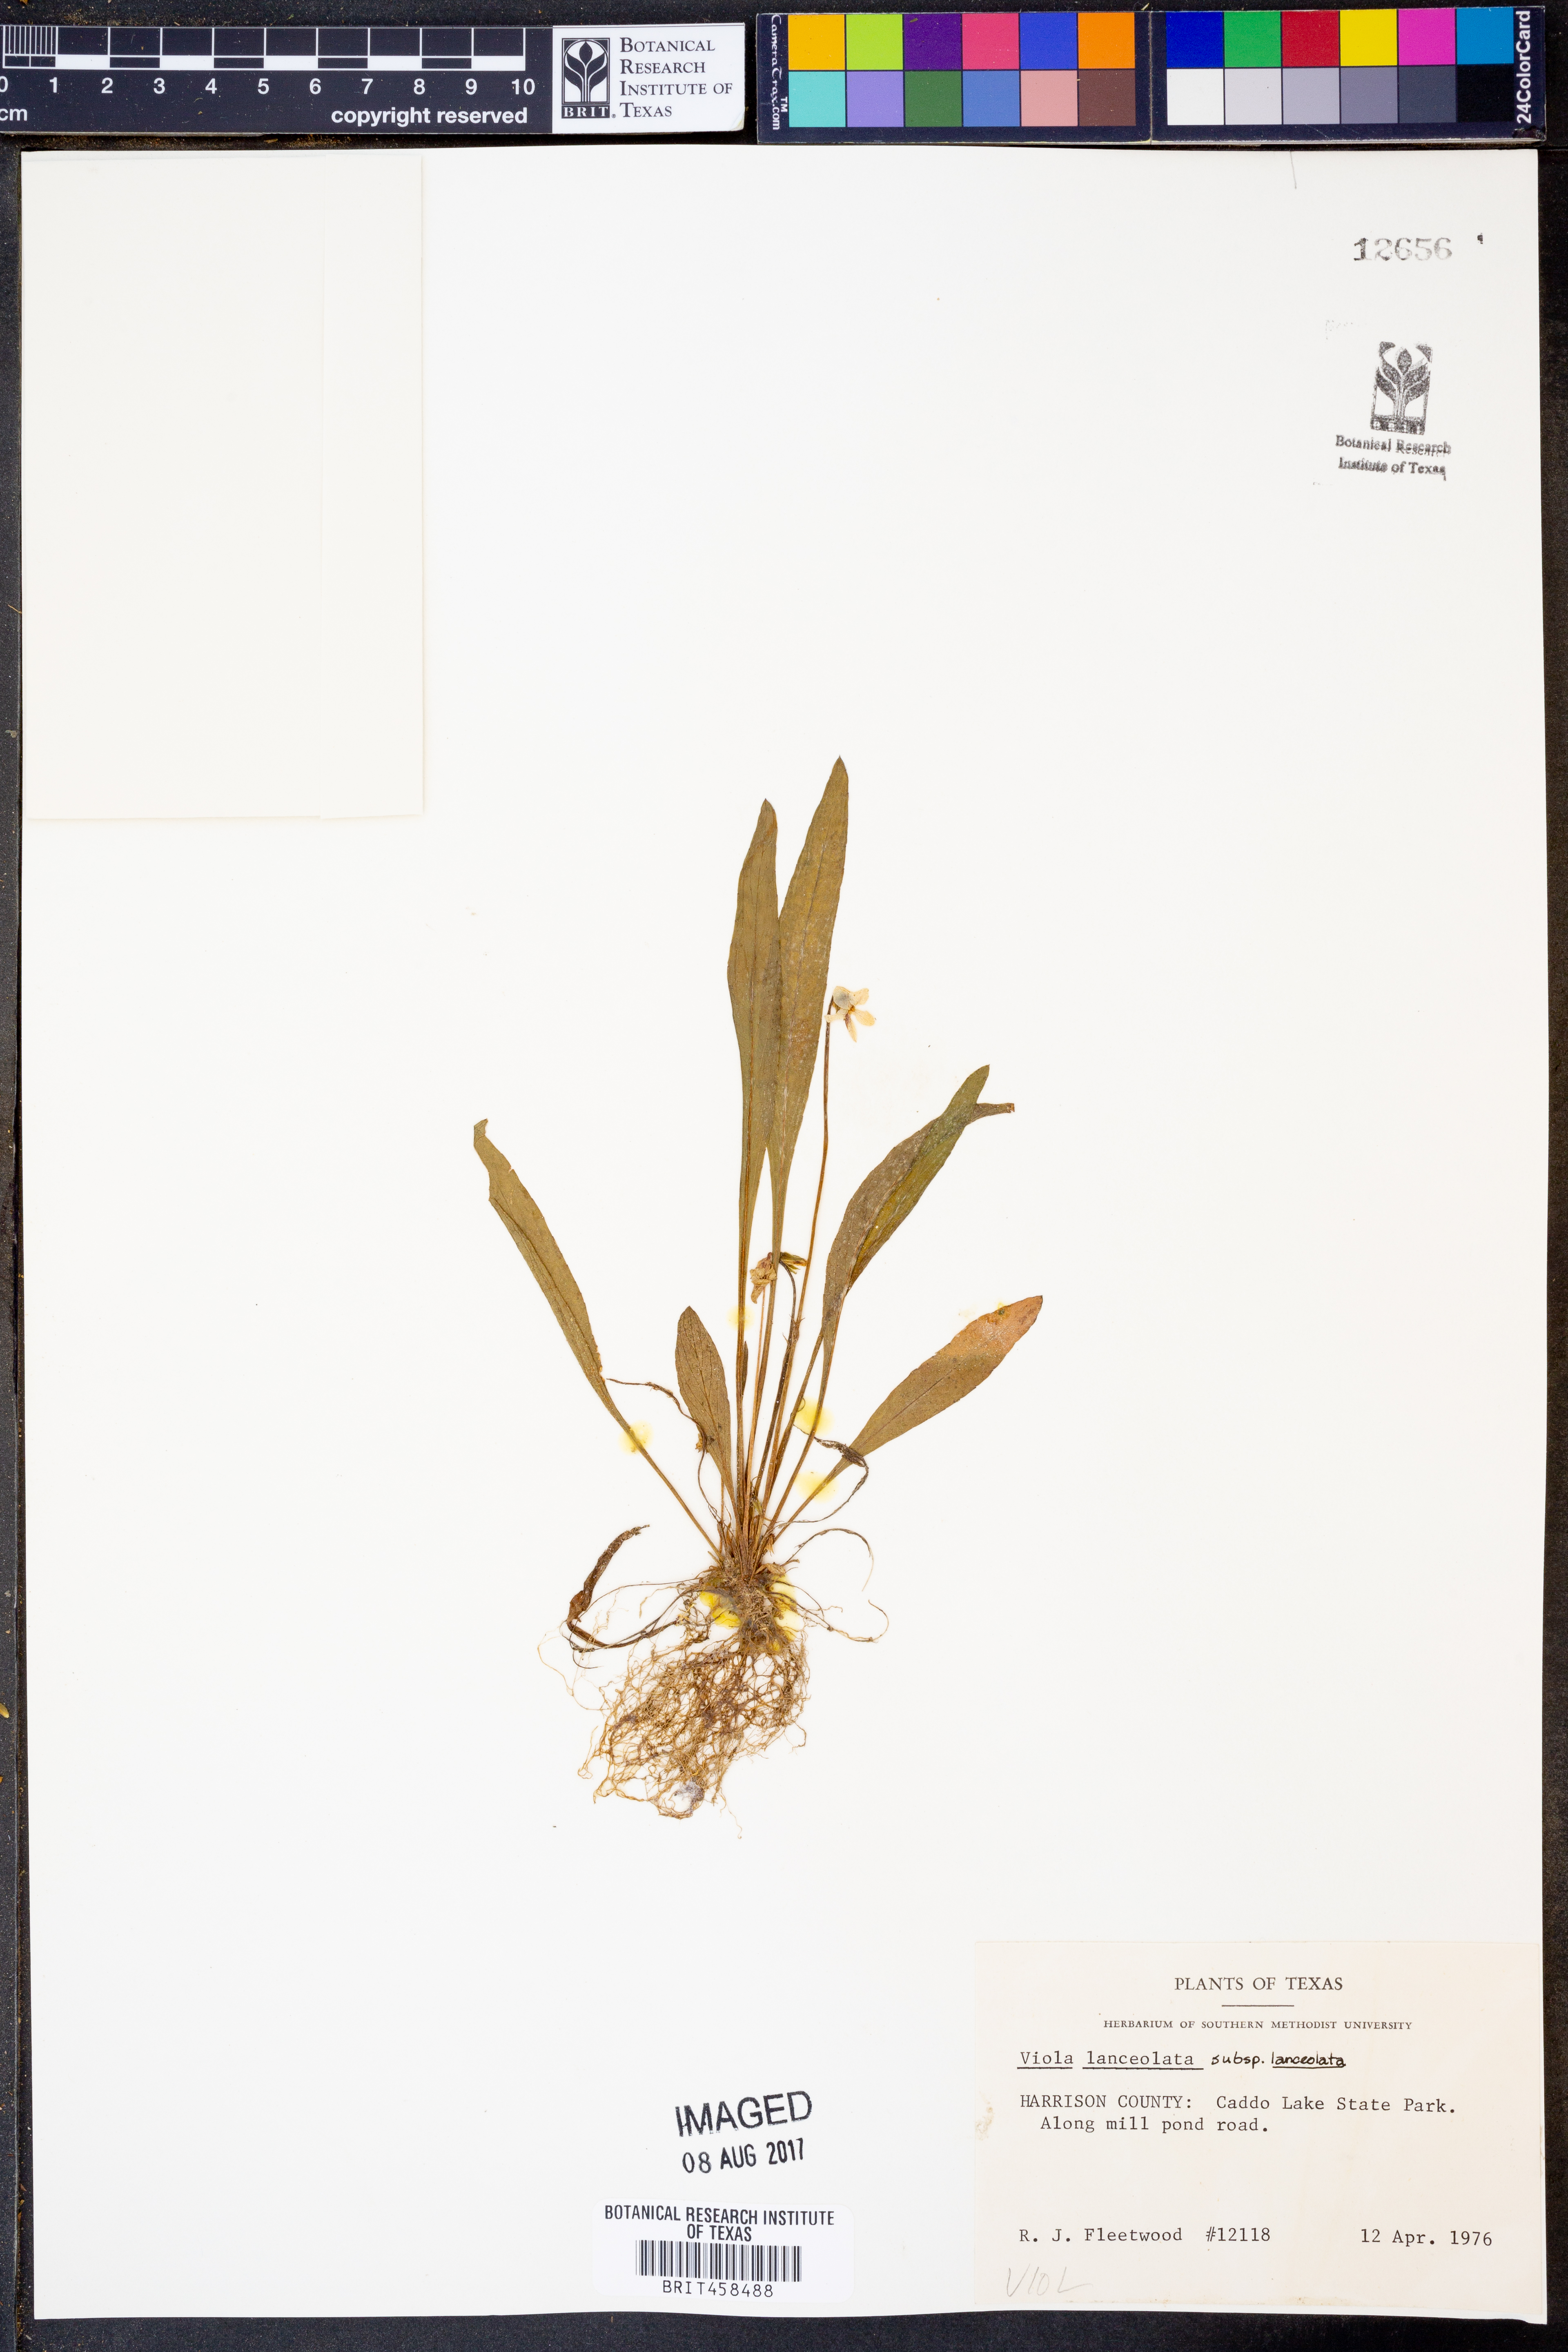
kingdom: Plantae
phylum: Tracheophyta
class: Magnoliopsida
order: Malpighiales
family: Violaceae
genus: Viola
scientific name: Viola lanceolata
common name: Bog white violet
